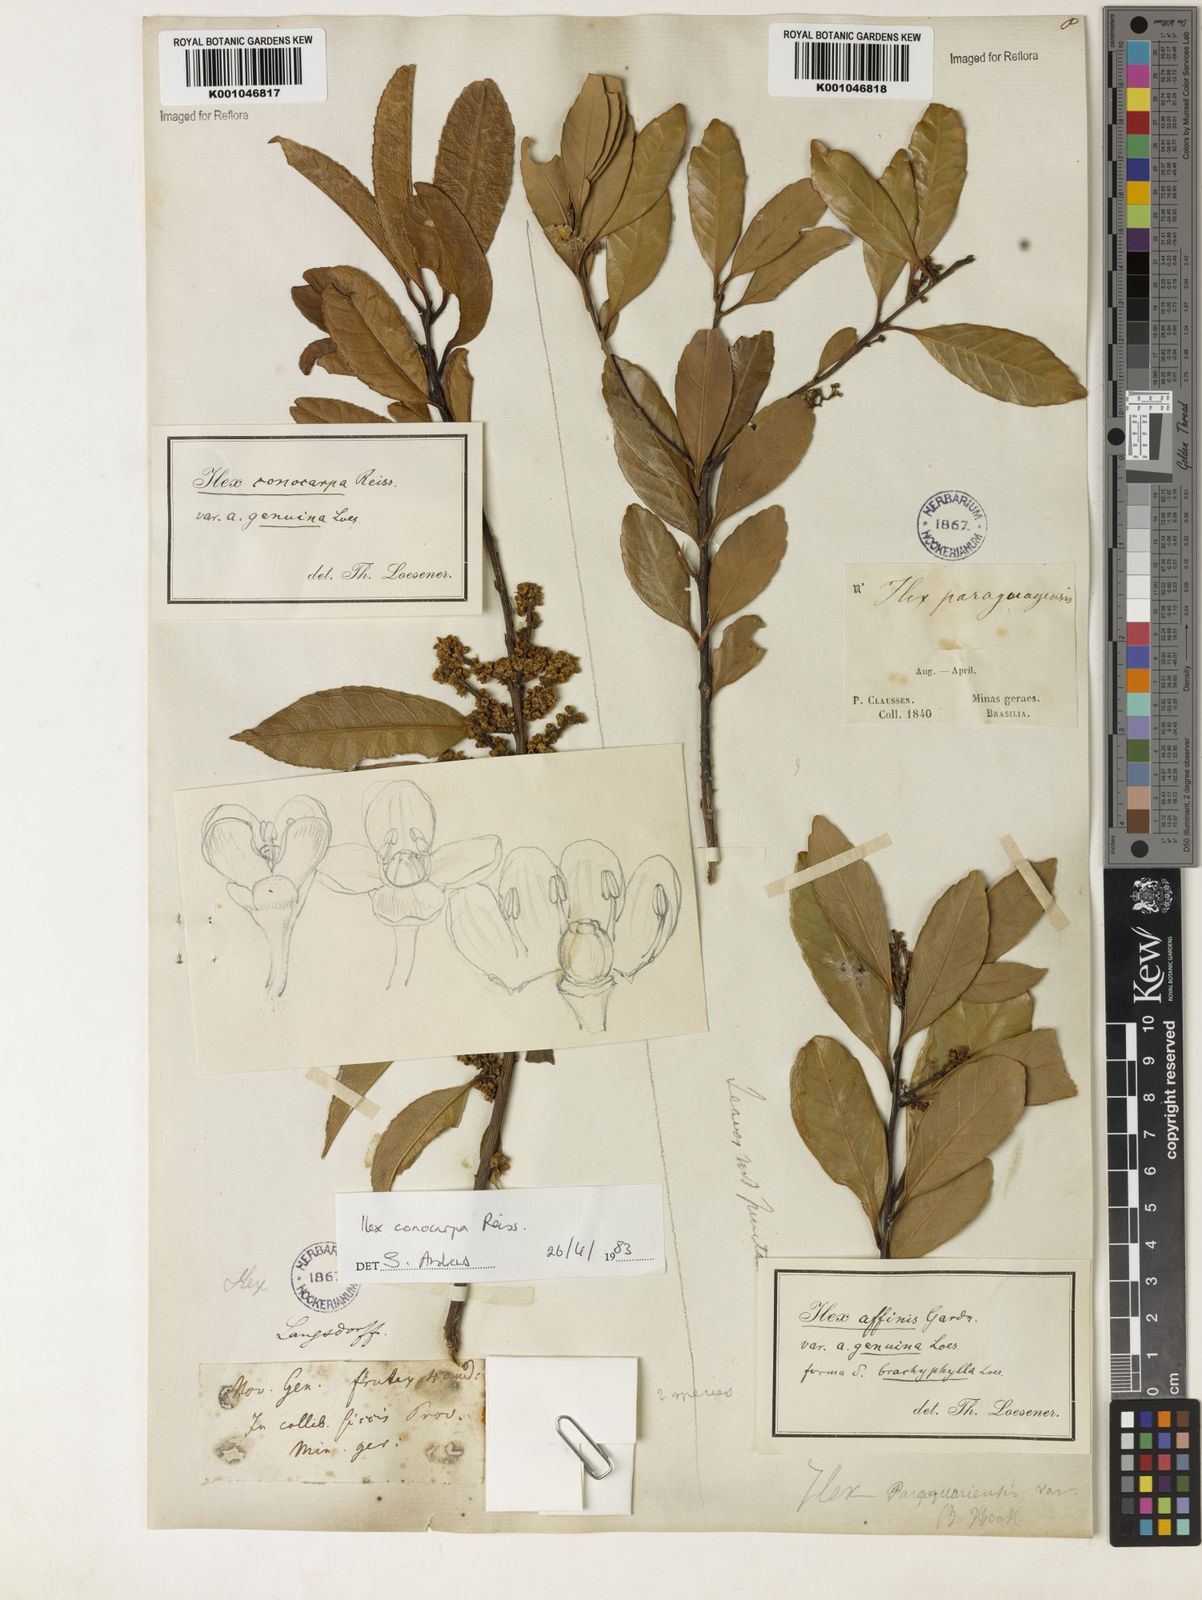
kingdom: Plantae
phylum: Tracheophyta
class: Magnoliopsida
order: Aquifoliales
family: Aquifoliaceae
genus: Ilex
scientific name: Ilex affinis
